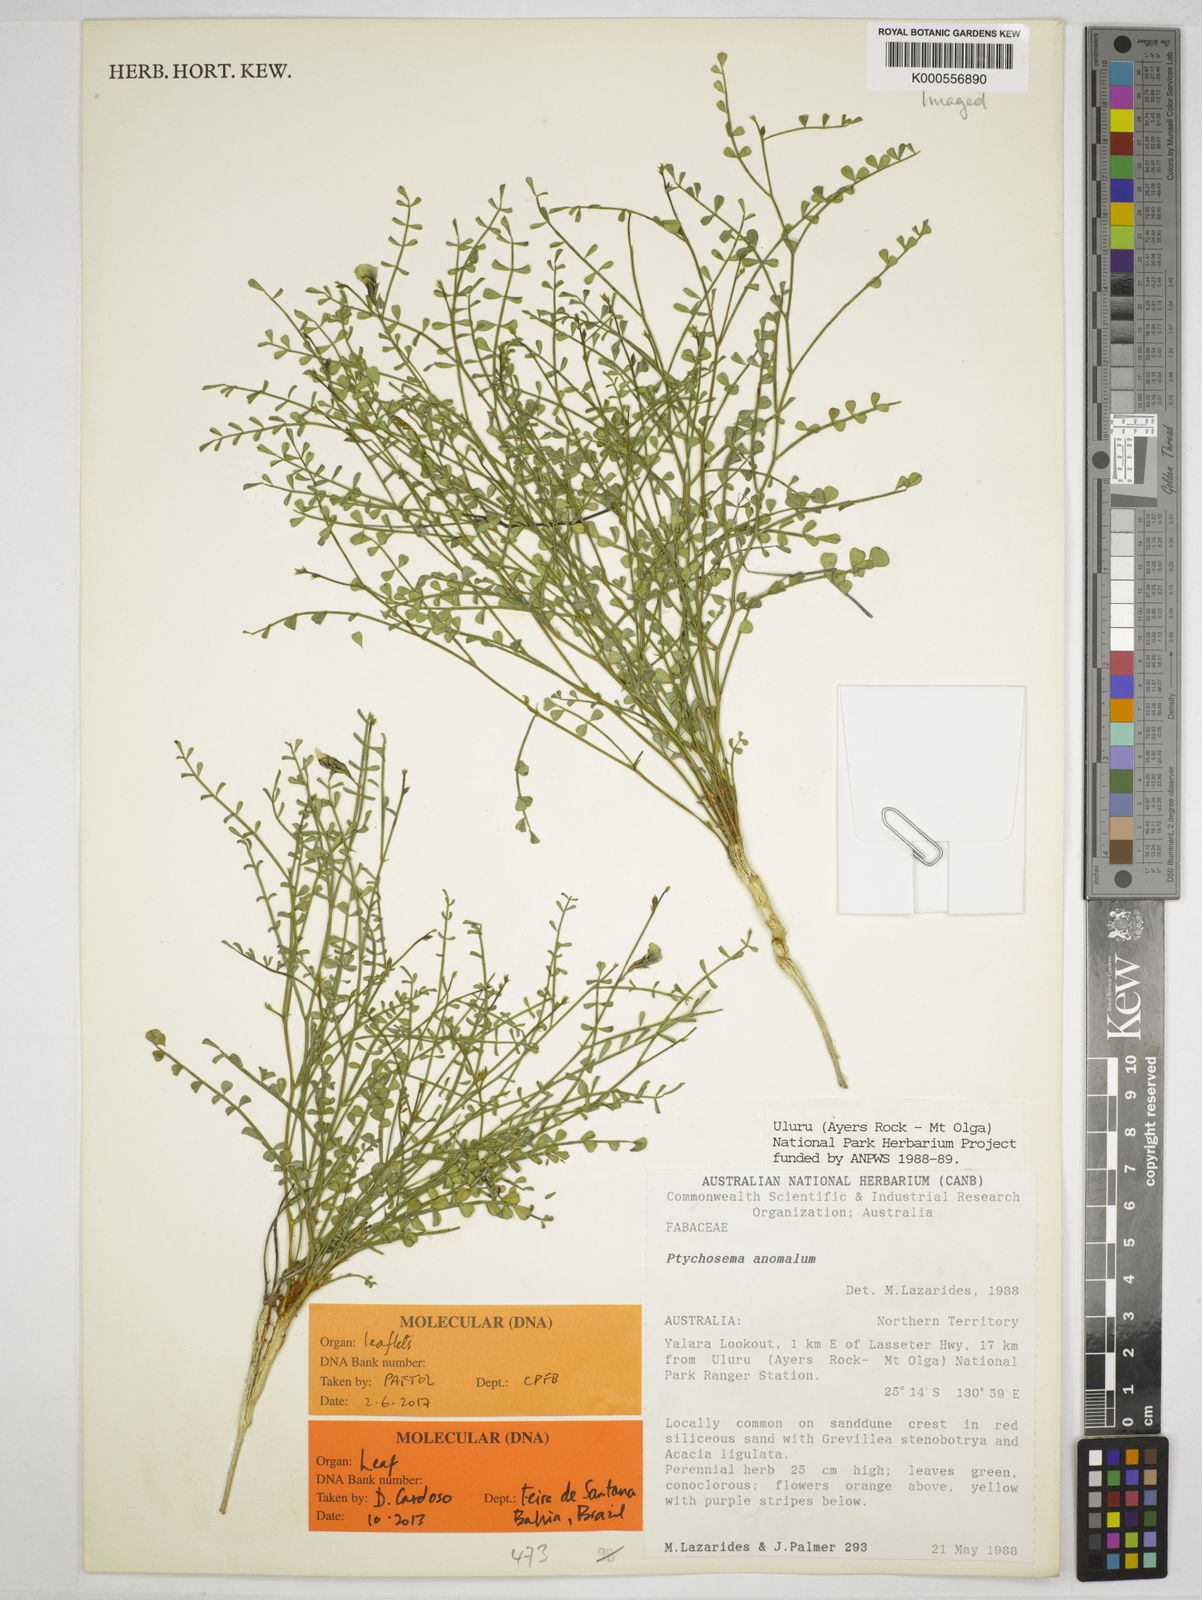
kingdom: Plantae
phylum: Tracheophyta
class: Magnoliopsida
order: Fabales
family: Fabaceae
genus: Aenictophyton
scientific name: Aenictophyton anomalum
